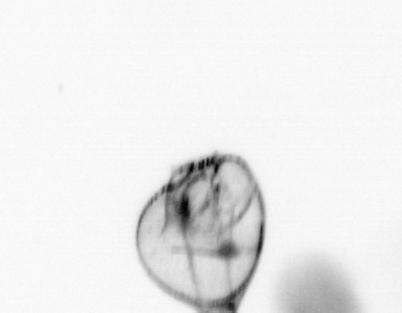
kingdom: Chromista
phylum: Myzozoa
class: Dinophyceae
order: Noctilucales
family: Noctilucaceae
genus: Noctiluca
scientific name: Noctiluca scintillans
